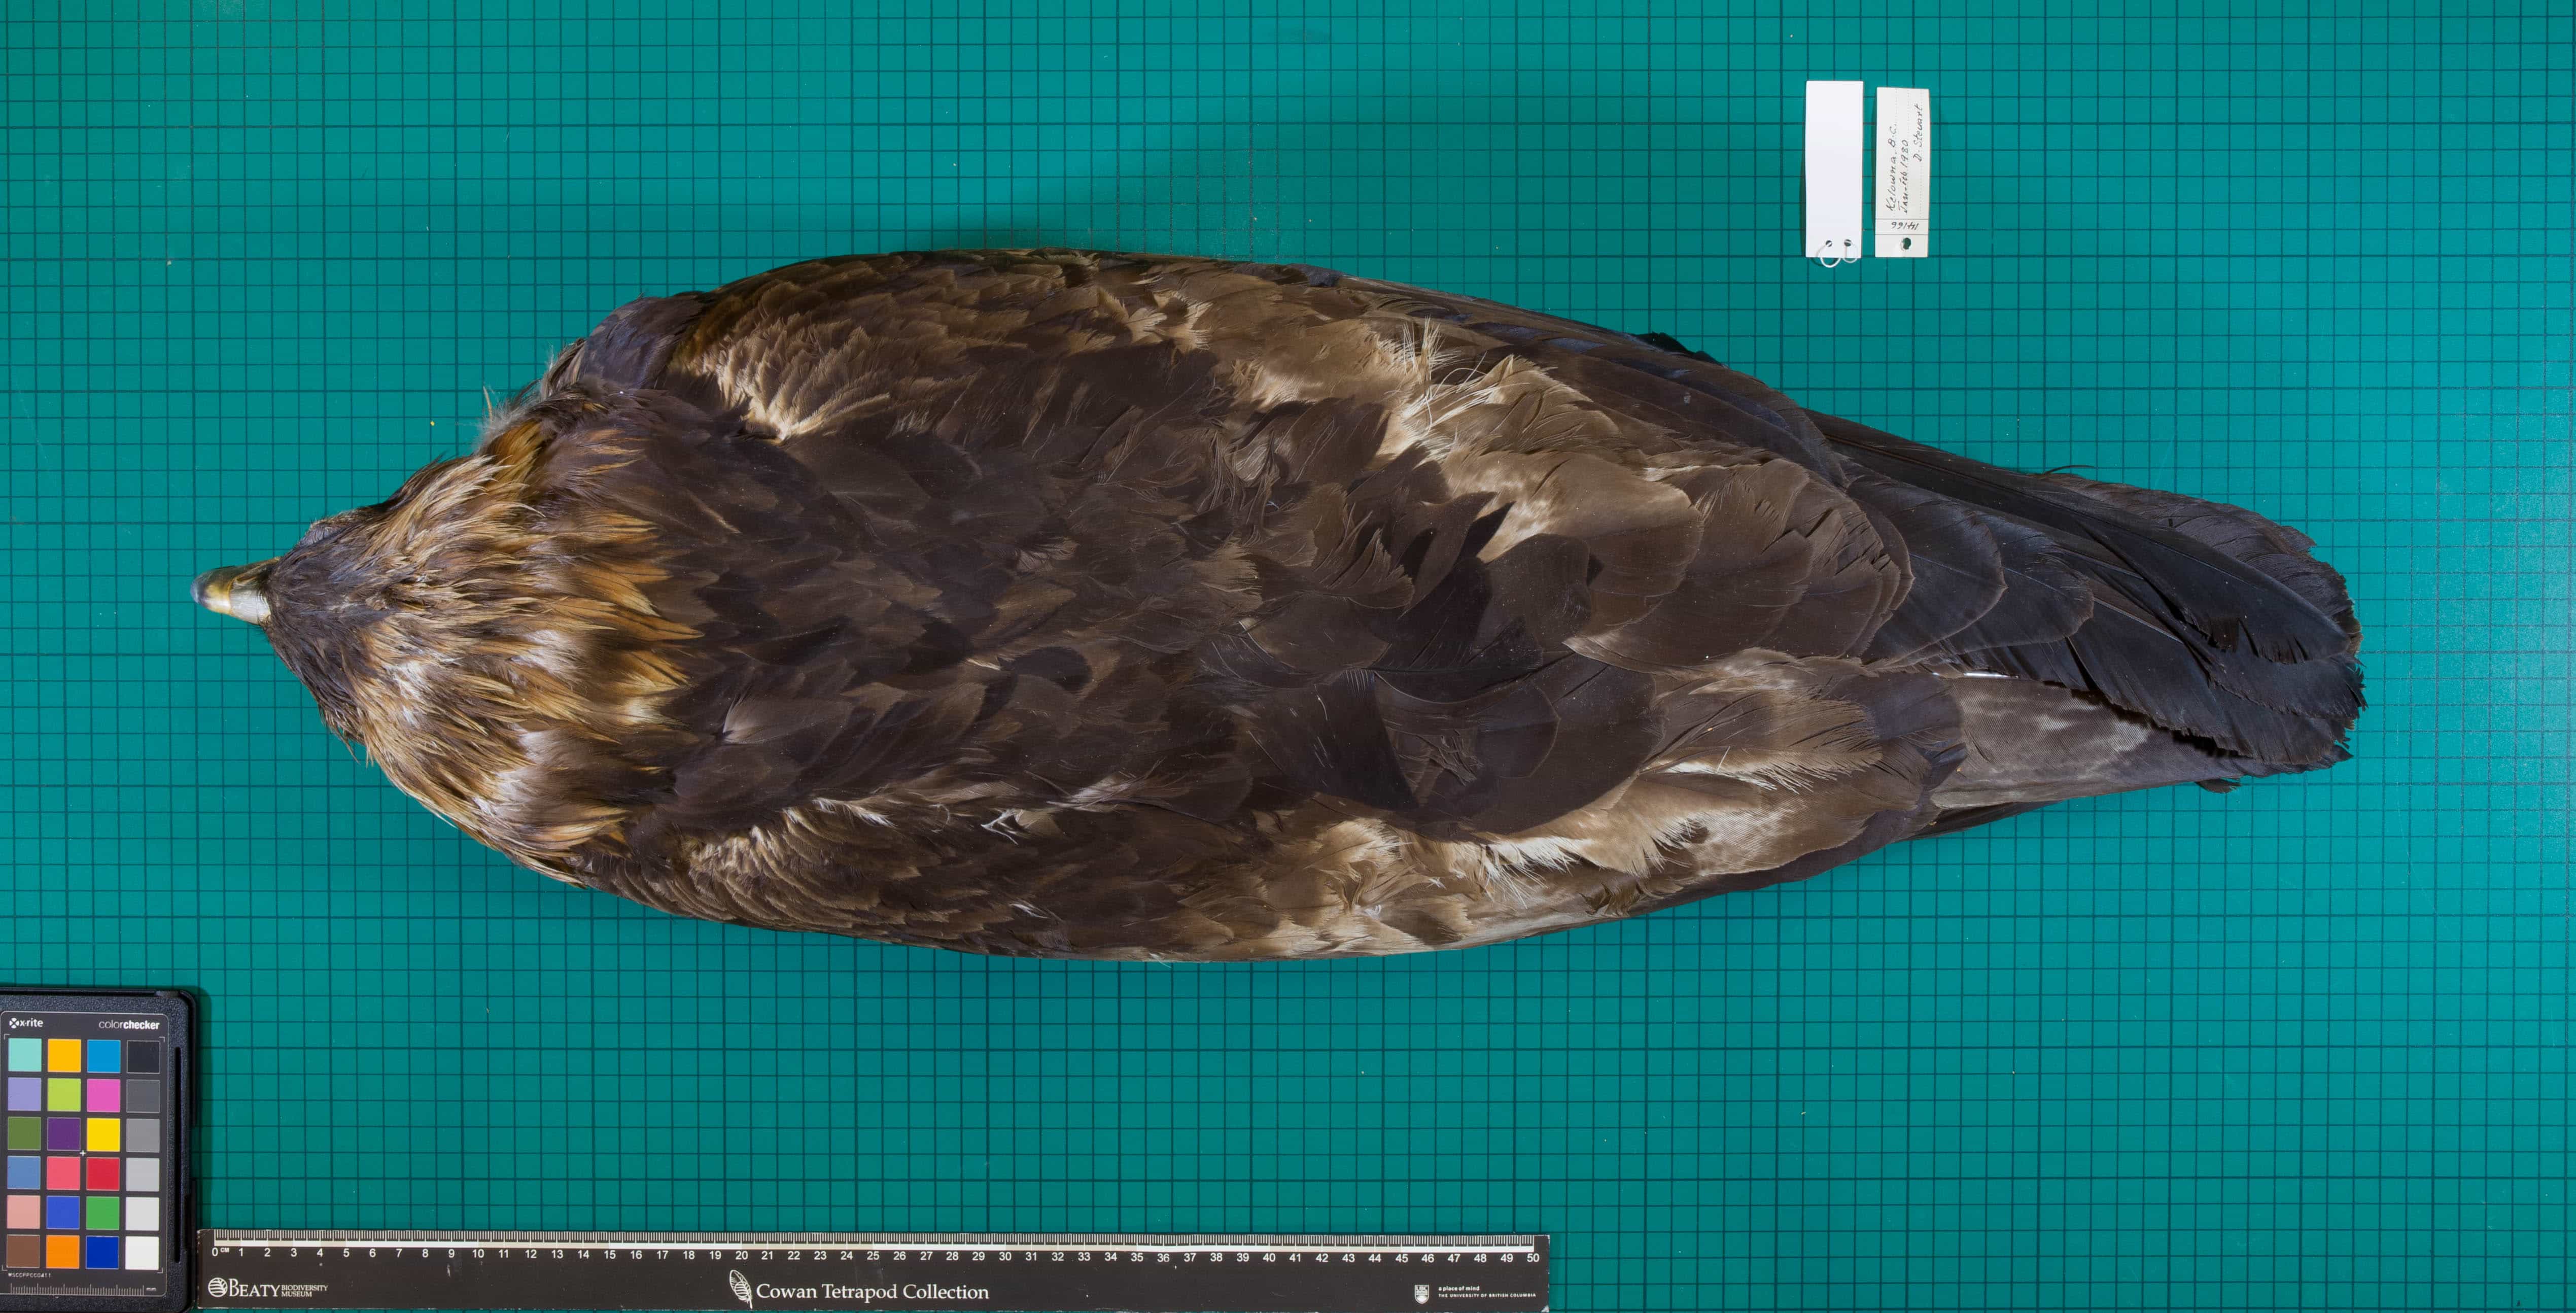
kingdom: Animalia
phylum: Chordata
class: Aves
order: Accipitriformes
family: Accipitridae
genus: Aquila
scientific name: Aquila chrysaetos
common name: Golden Eagle
